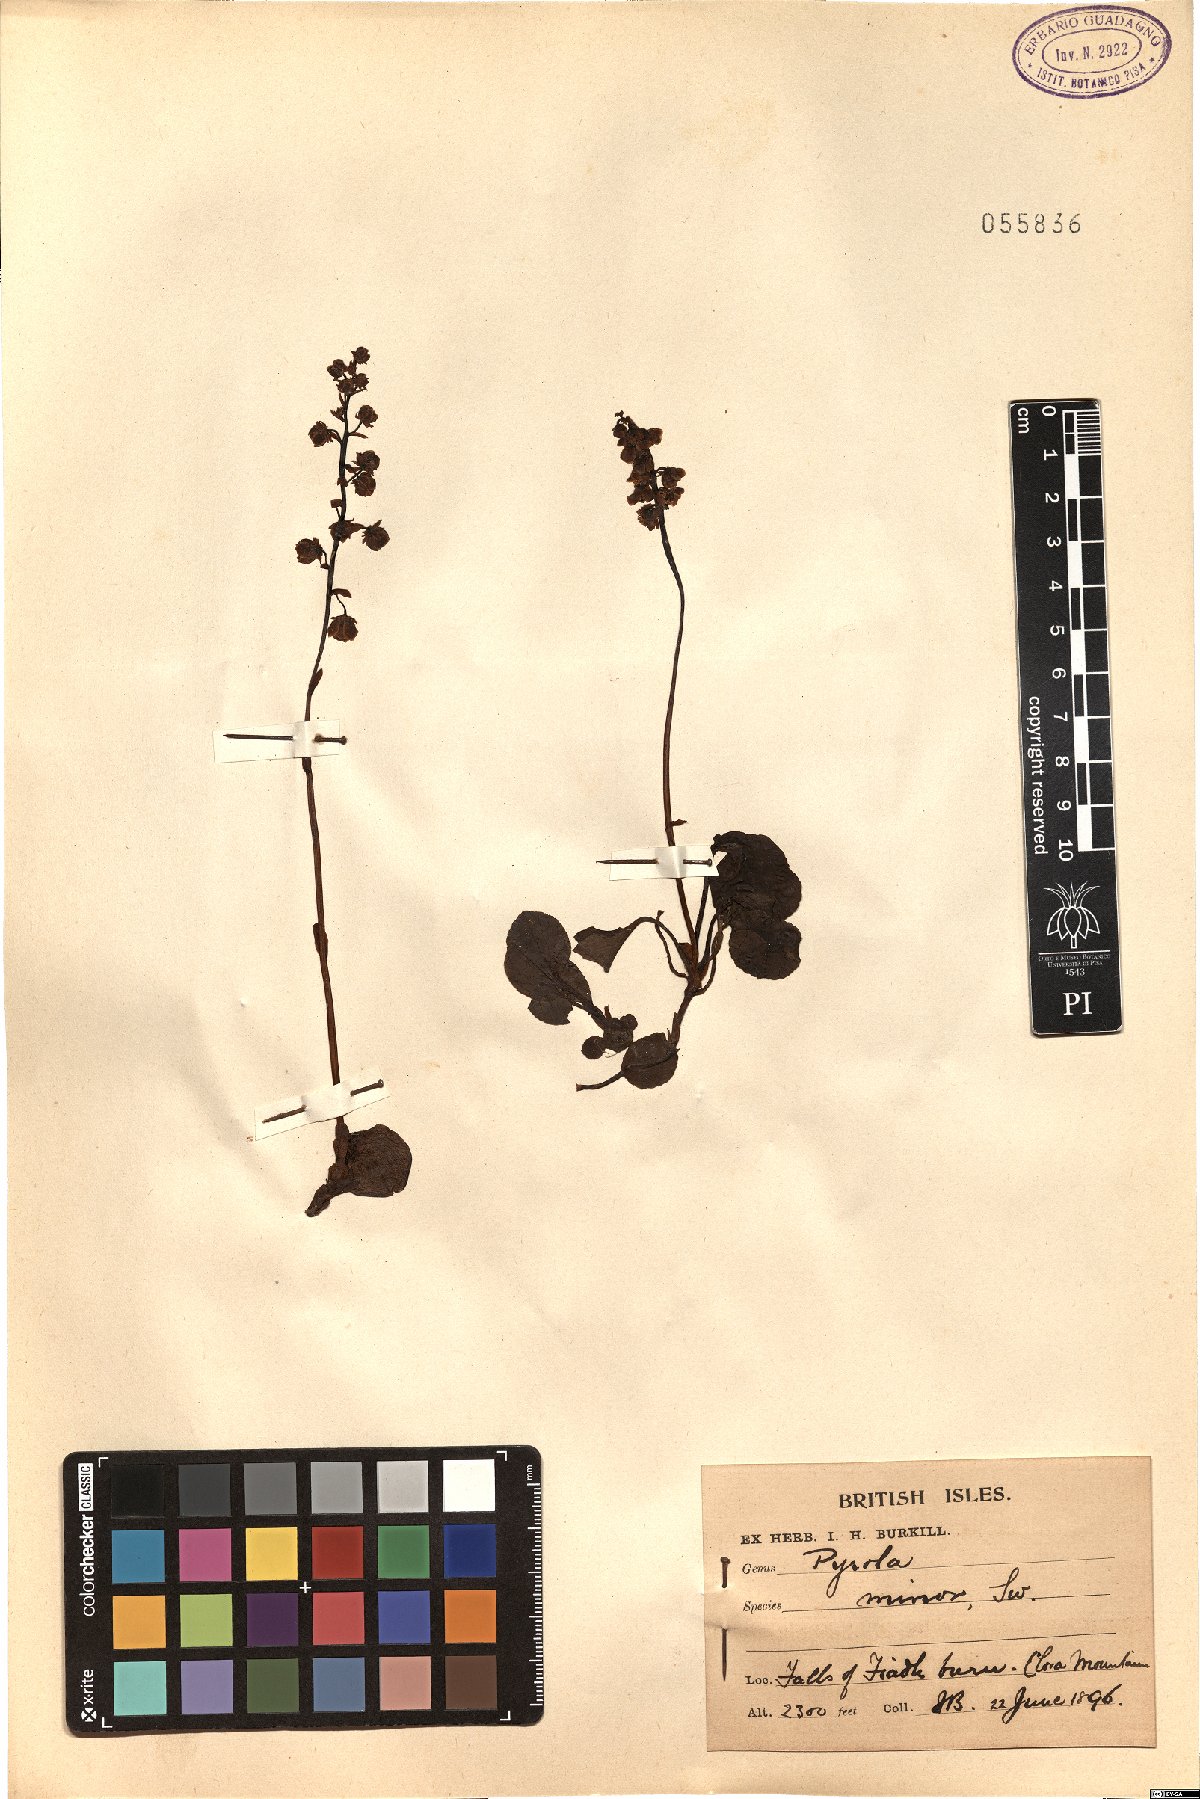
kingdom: Plantae
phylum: Tracheophyta
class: Magnoliopsida
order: Ericales
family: Ericaceae
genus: Pyrola
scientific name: Pyrola minor
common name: Common wintergreen
